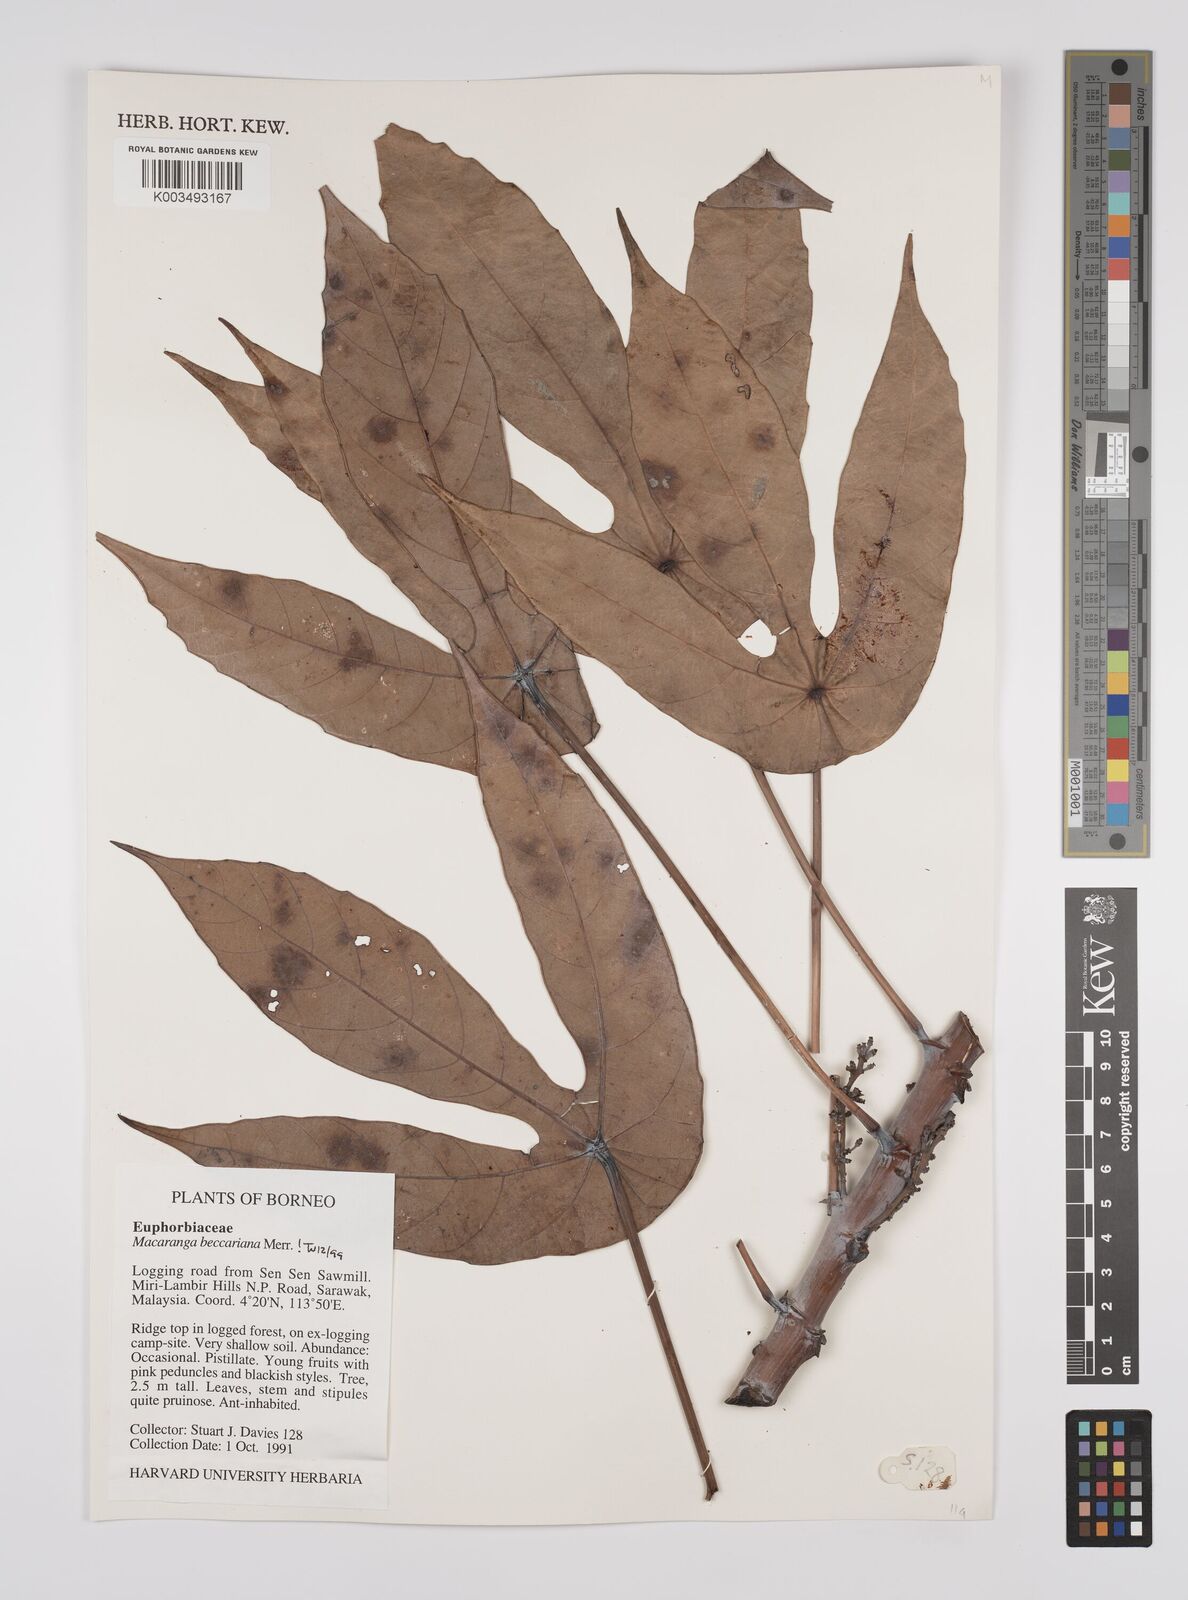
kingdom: Plantae
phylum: Tracheophyta
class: Magnoliopsida
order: Malpighiales
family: Euphorbiaceae
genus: Macaranga
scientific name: Macaranga beccariana
